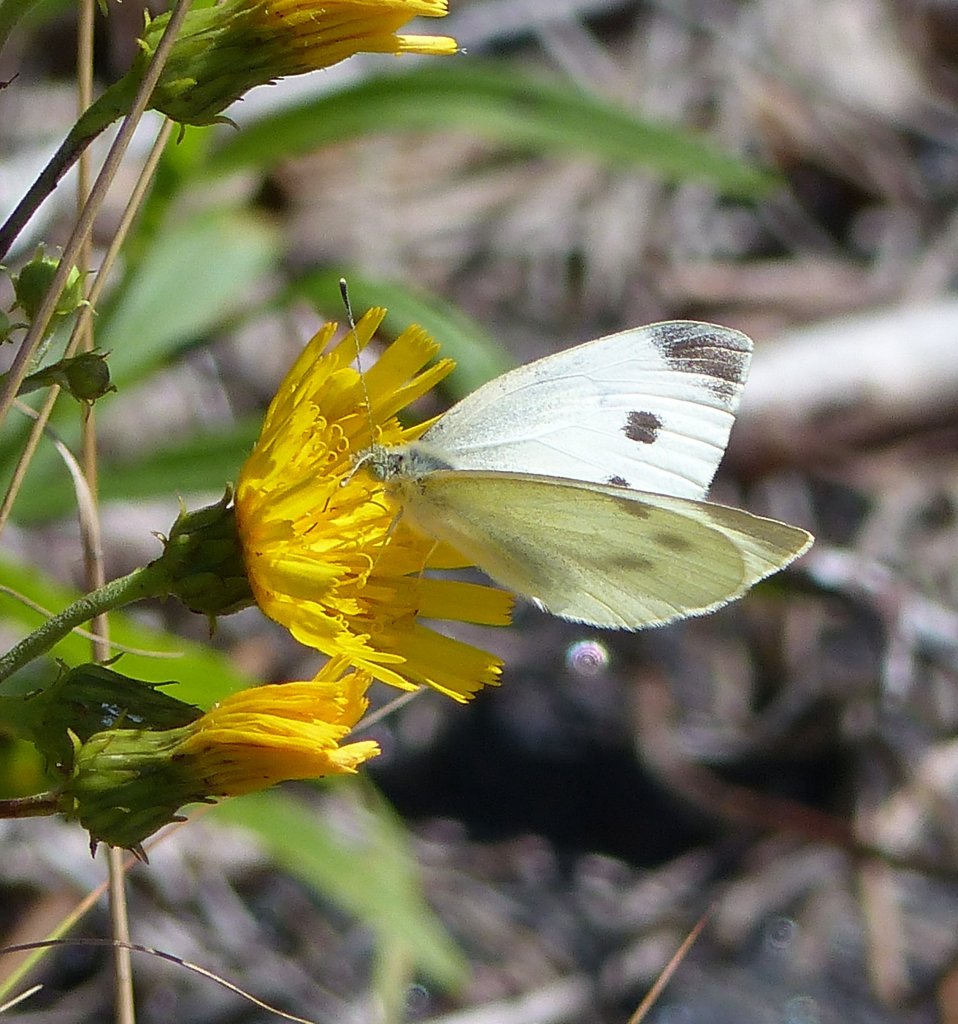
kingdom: Animalia
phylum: Arthropoda
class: Insecta
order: Lepidoptera
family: Pieridae
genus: Pieris
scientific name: Pieris rapae
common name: Cabbage White
